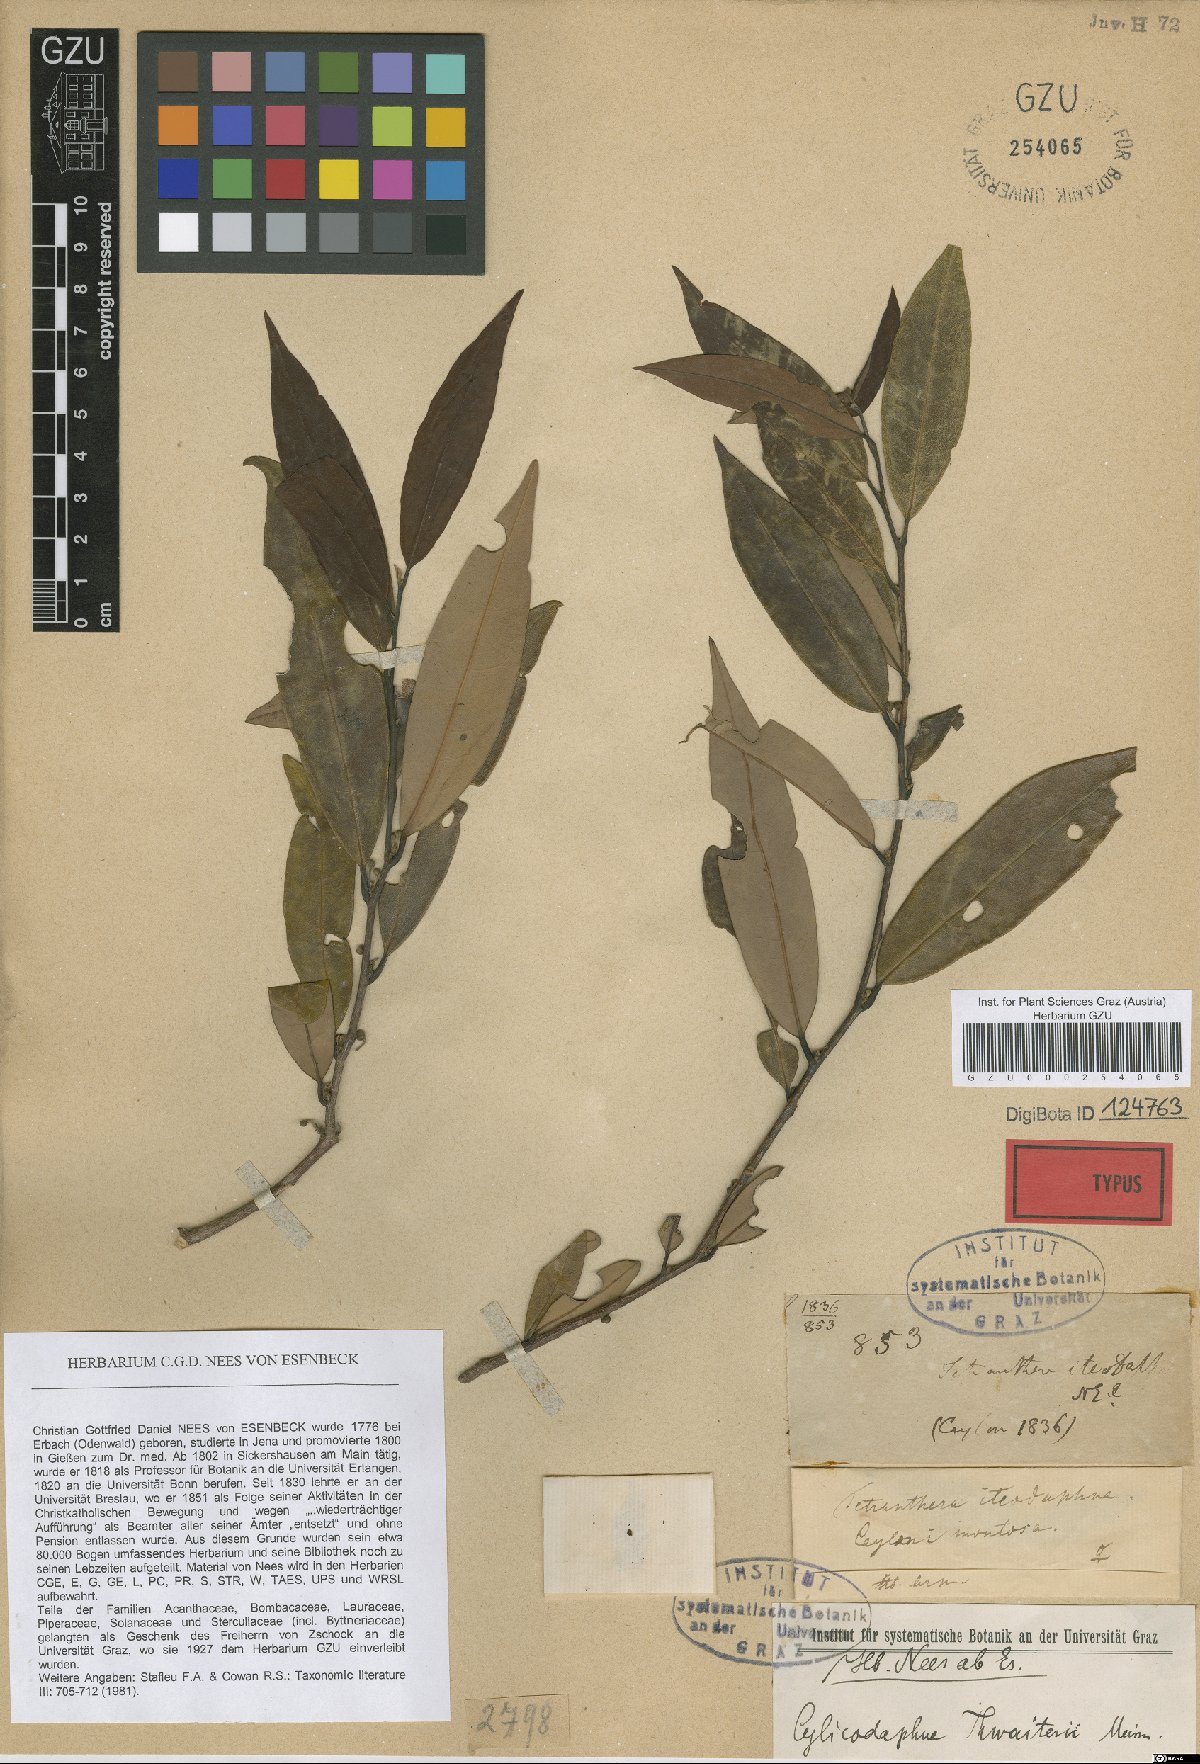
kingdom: Plantae
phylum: Tracheophyta
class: Magnoliopsida
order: Laurales
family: Lauraceae
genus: Litsea
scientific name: Litsea iteodaphne
